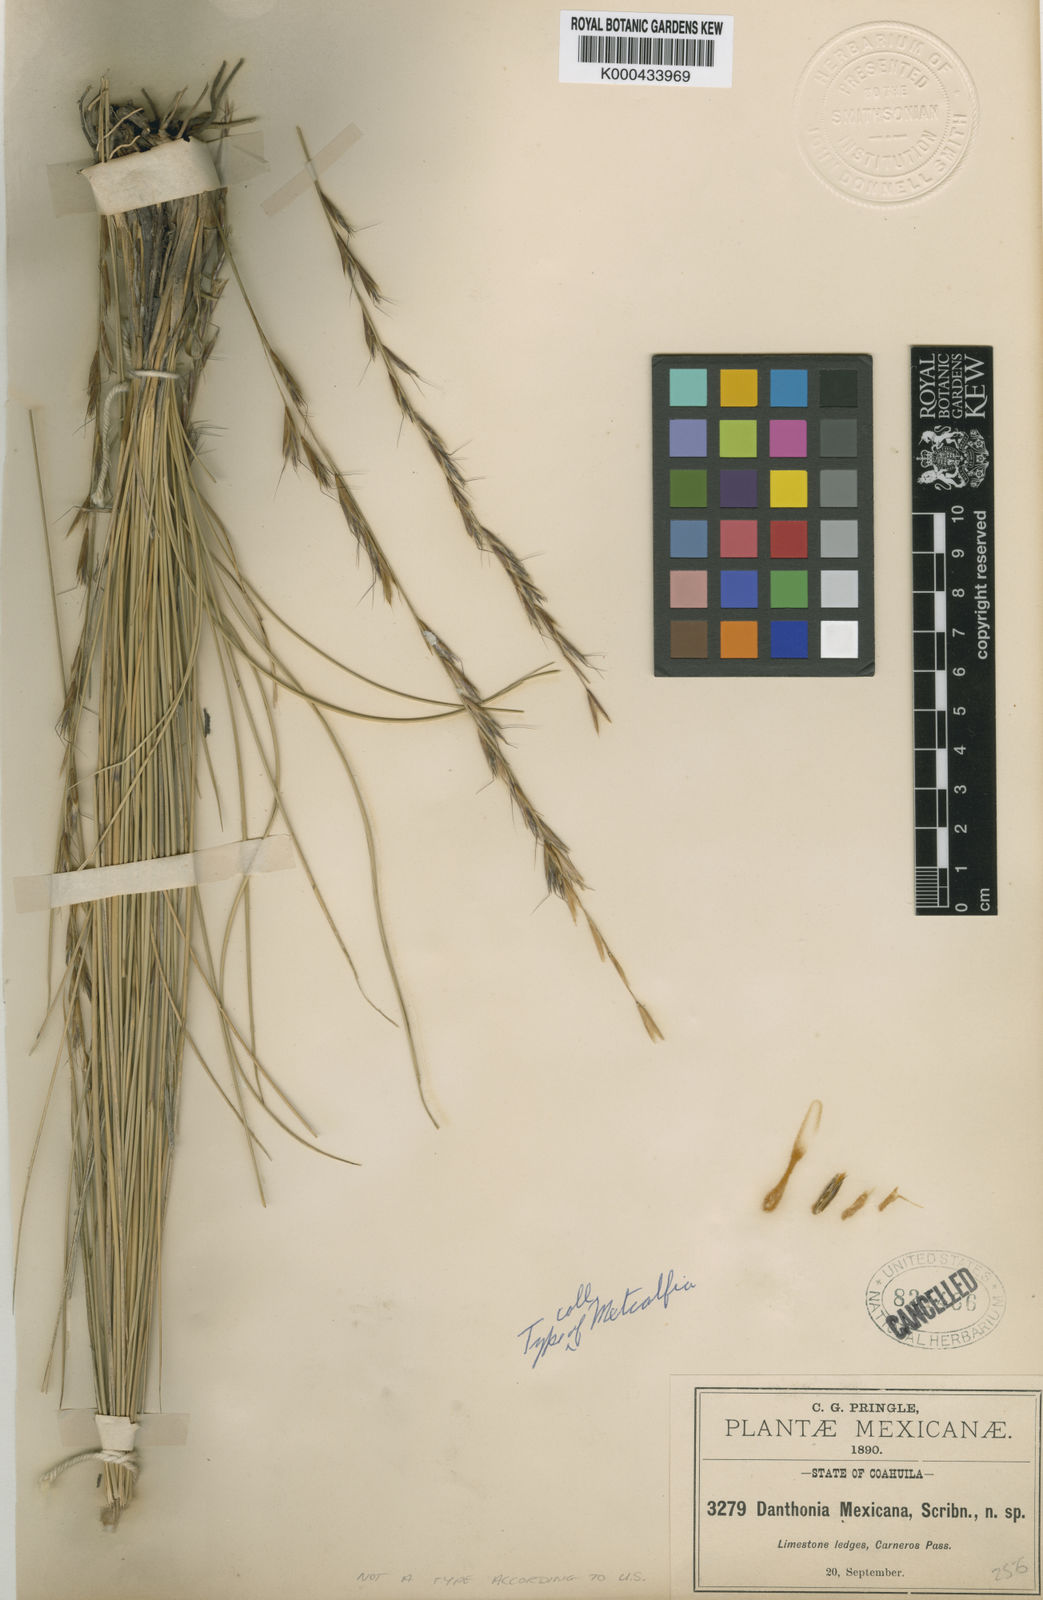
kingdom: Plantae
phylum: Tracheophyta
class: Liliopsida
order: Poales
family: Poaceae
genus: Metcalfia
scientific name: Metcalfia mexicana
